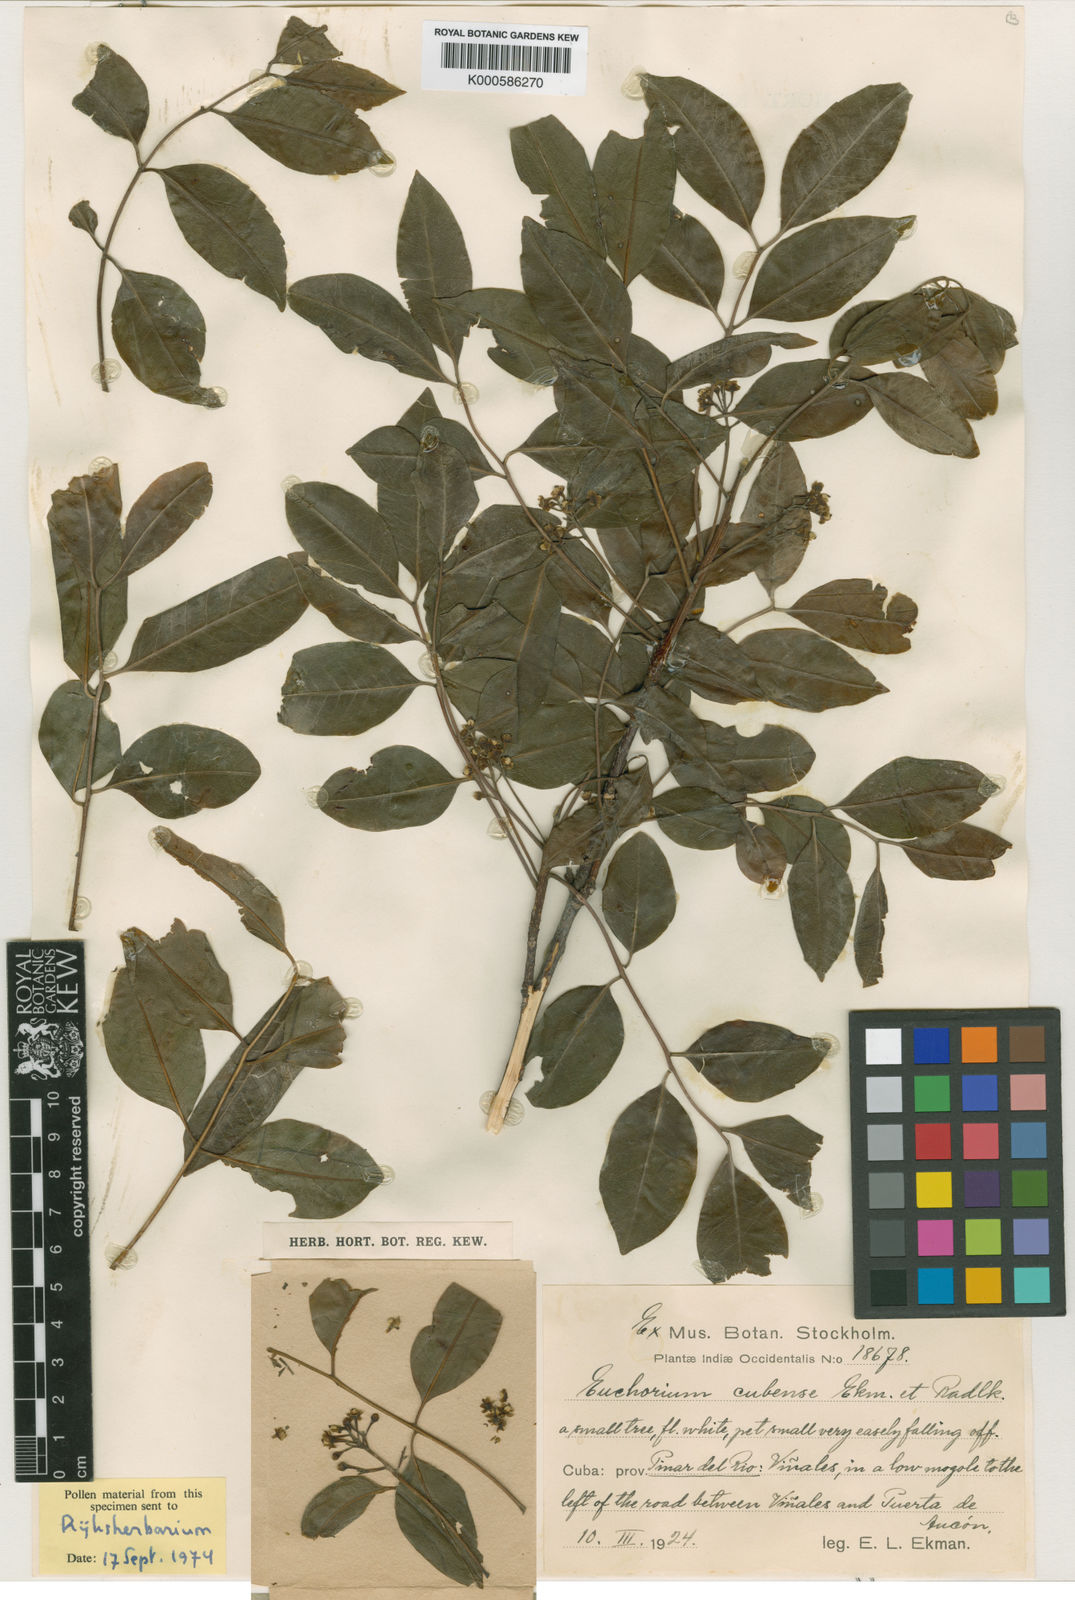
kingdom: Plantae
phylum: Tracheophyta
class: Magnoliopsida
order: Sapindales
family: Sapindaceae
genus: Euchorium
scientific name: Euchorium cubense
